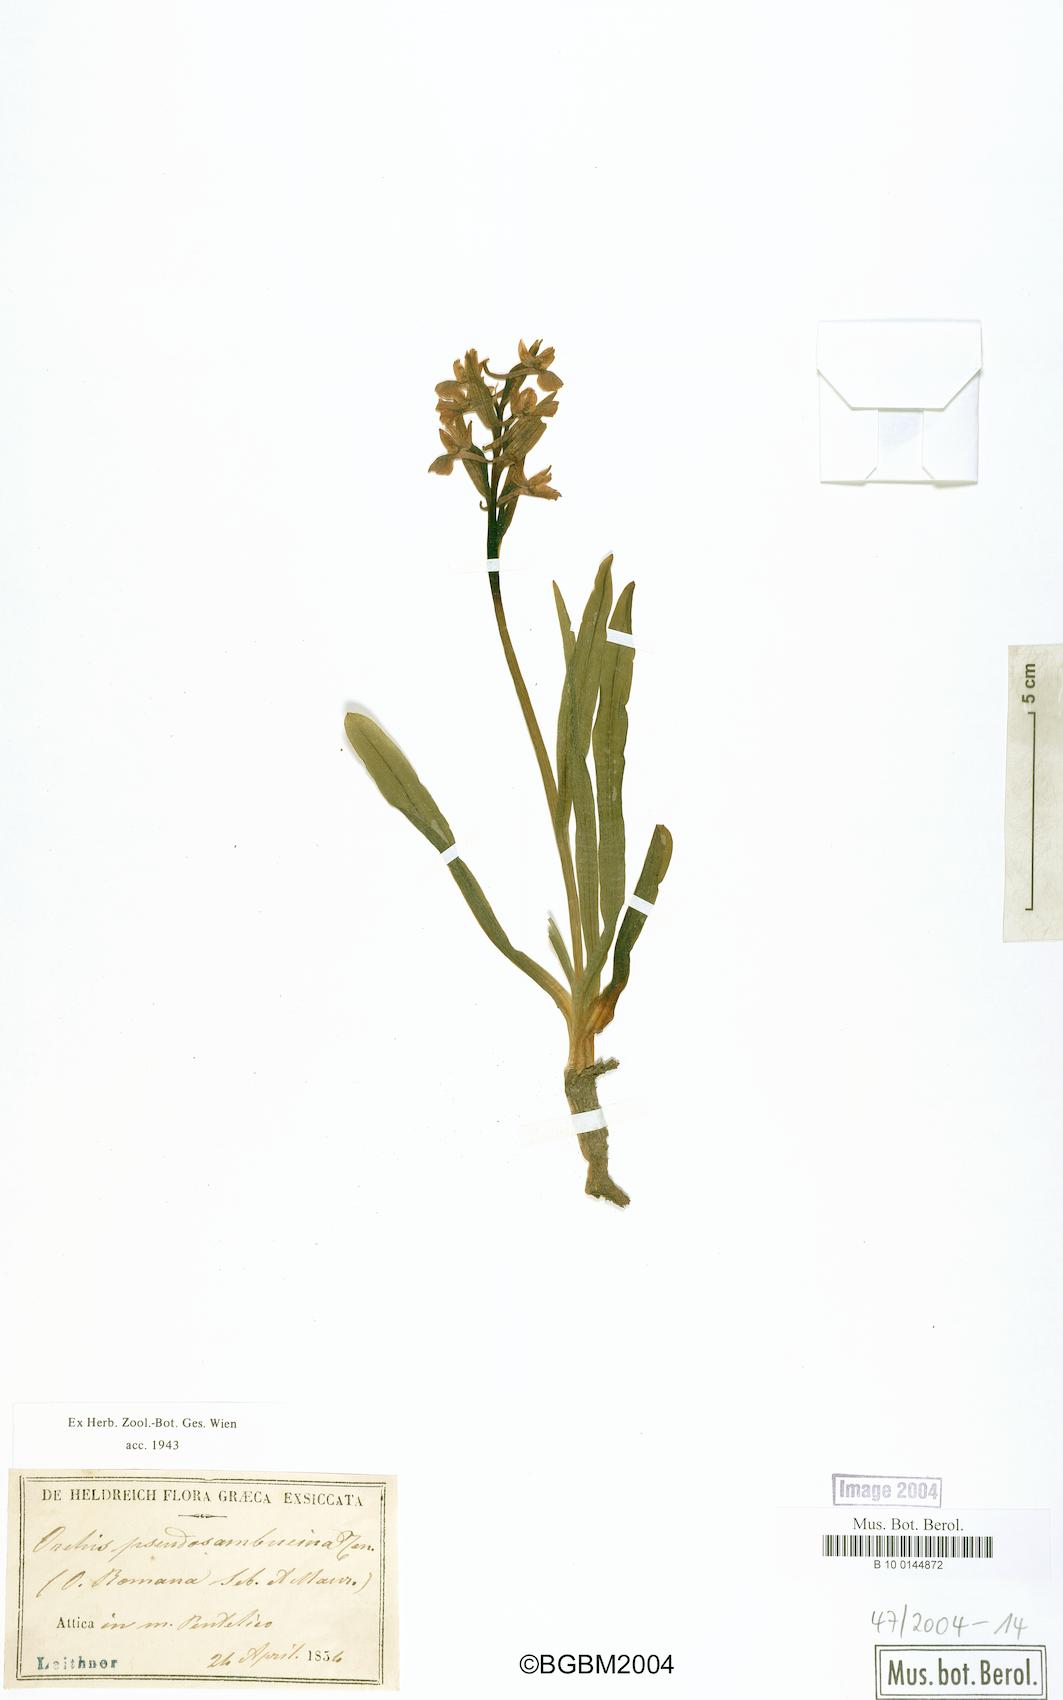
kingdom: Plantae
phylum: Tracheophyta
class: Liliopsida
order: Asparagales
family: Orchidaceae
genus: Dactylorhiza
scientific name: Dactylorhiza romana
